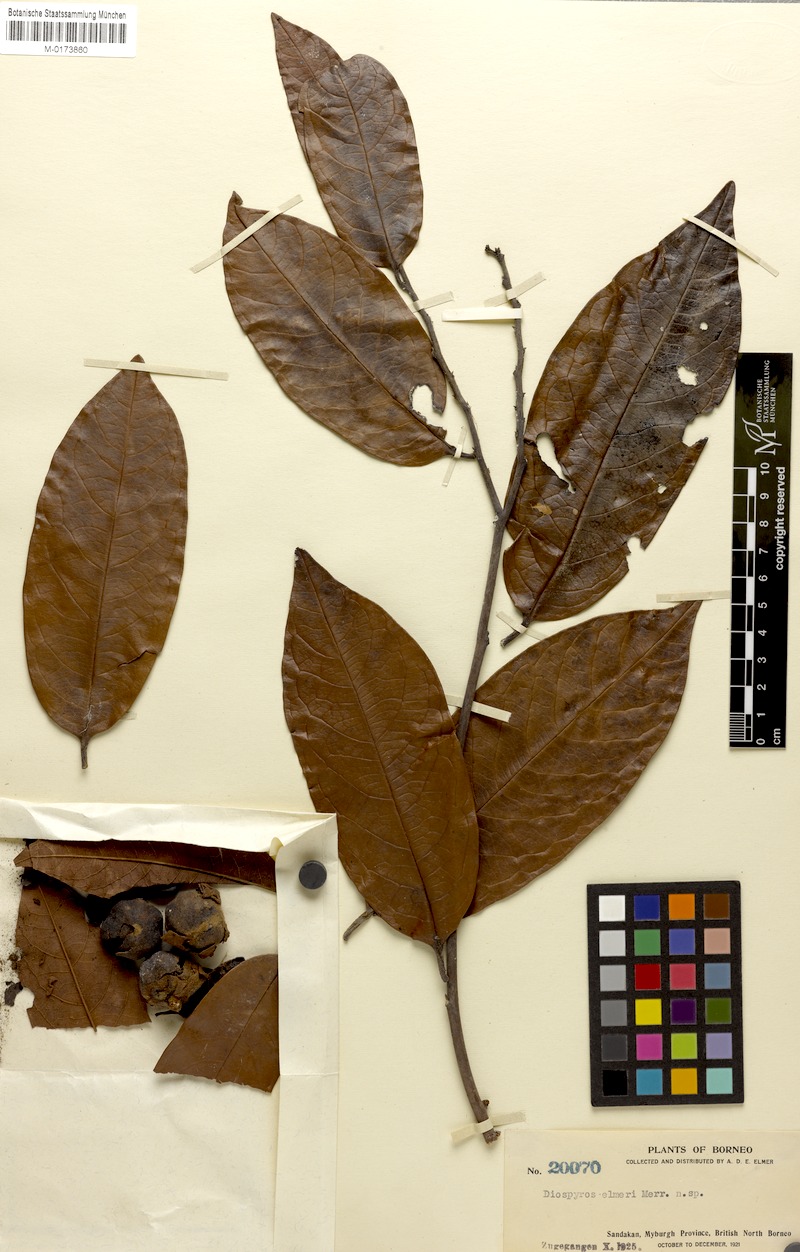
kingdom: Plantae
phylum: Tracheophyta
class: Magnoliopsida
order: Ericales
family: Ebenaceae
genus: Diospyros
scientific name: Diospyros oblonga
